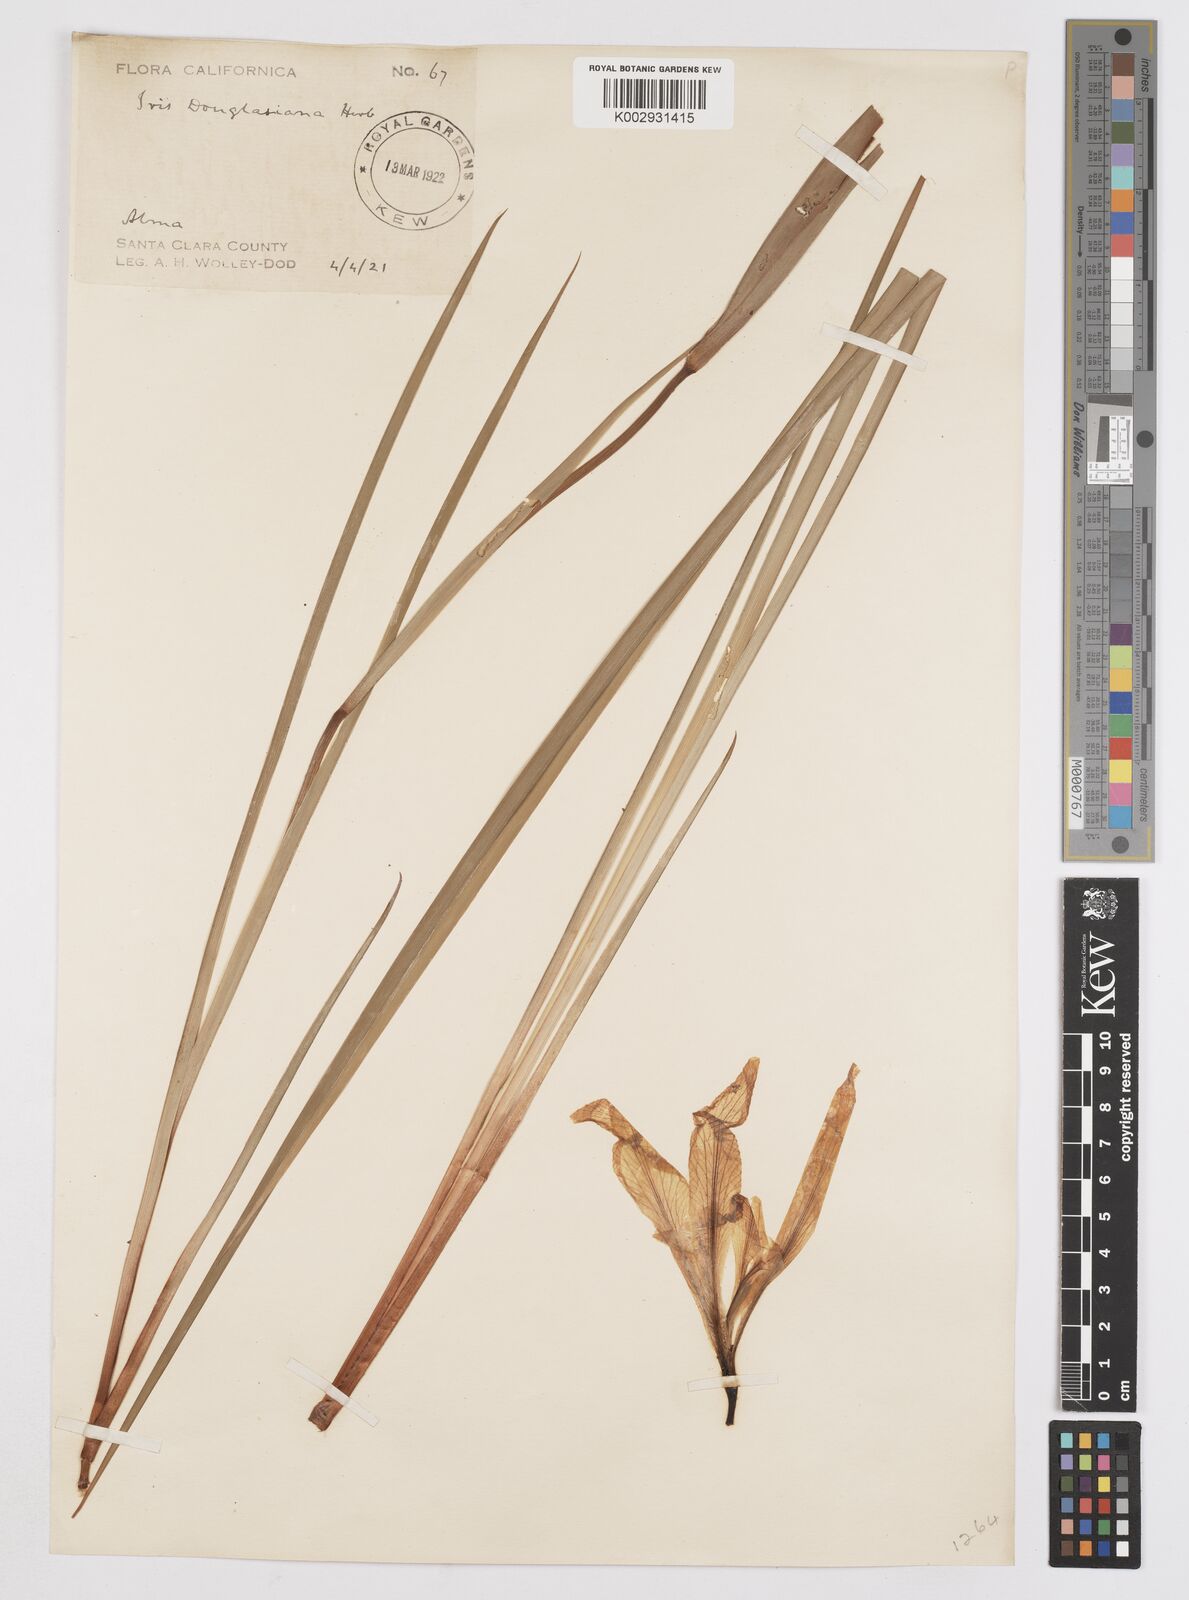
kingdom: Plantae
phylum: Tracheophyta
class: Liliopsida
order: Asparagales
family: Iridaceae
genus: Iris
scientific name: Iris douglasiana
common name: Marin iris
